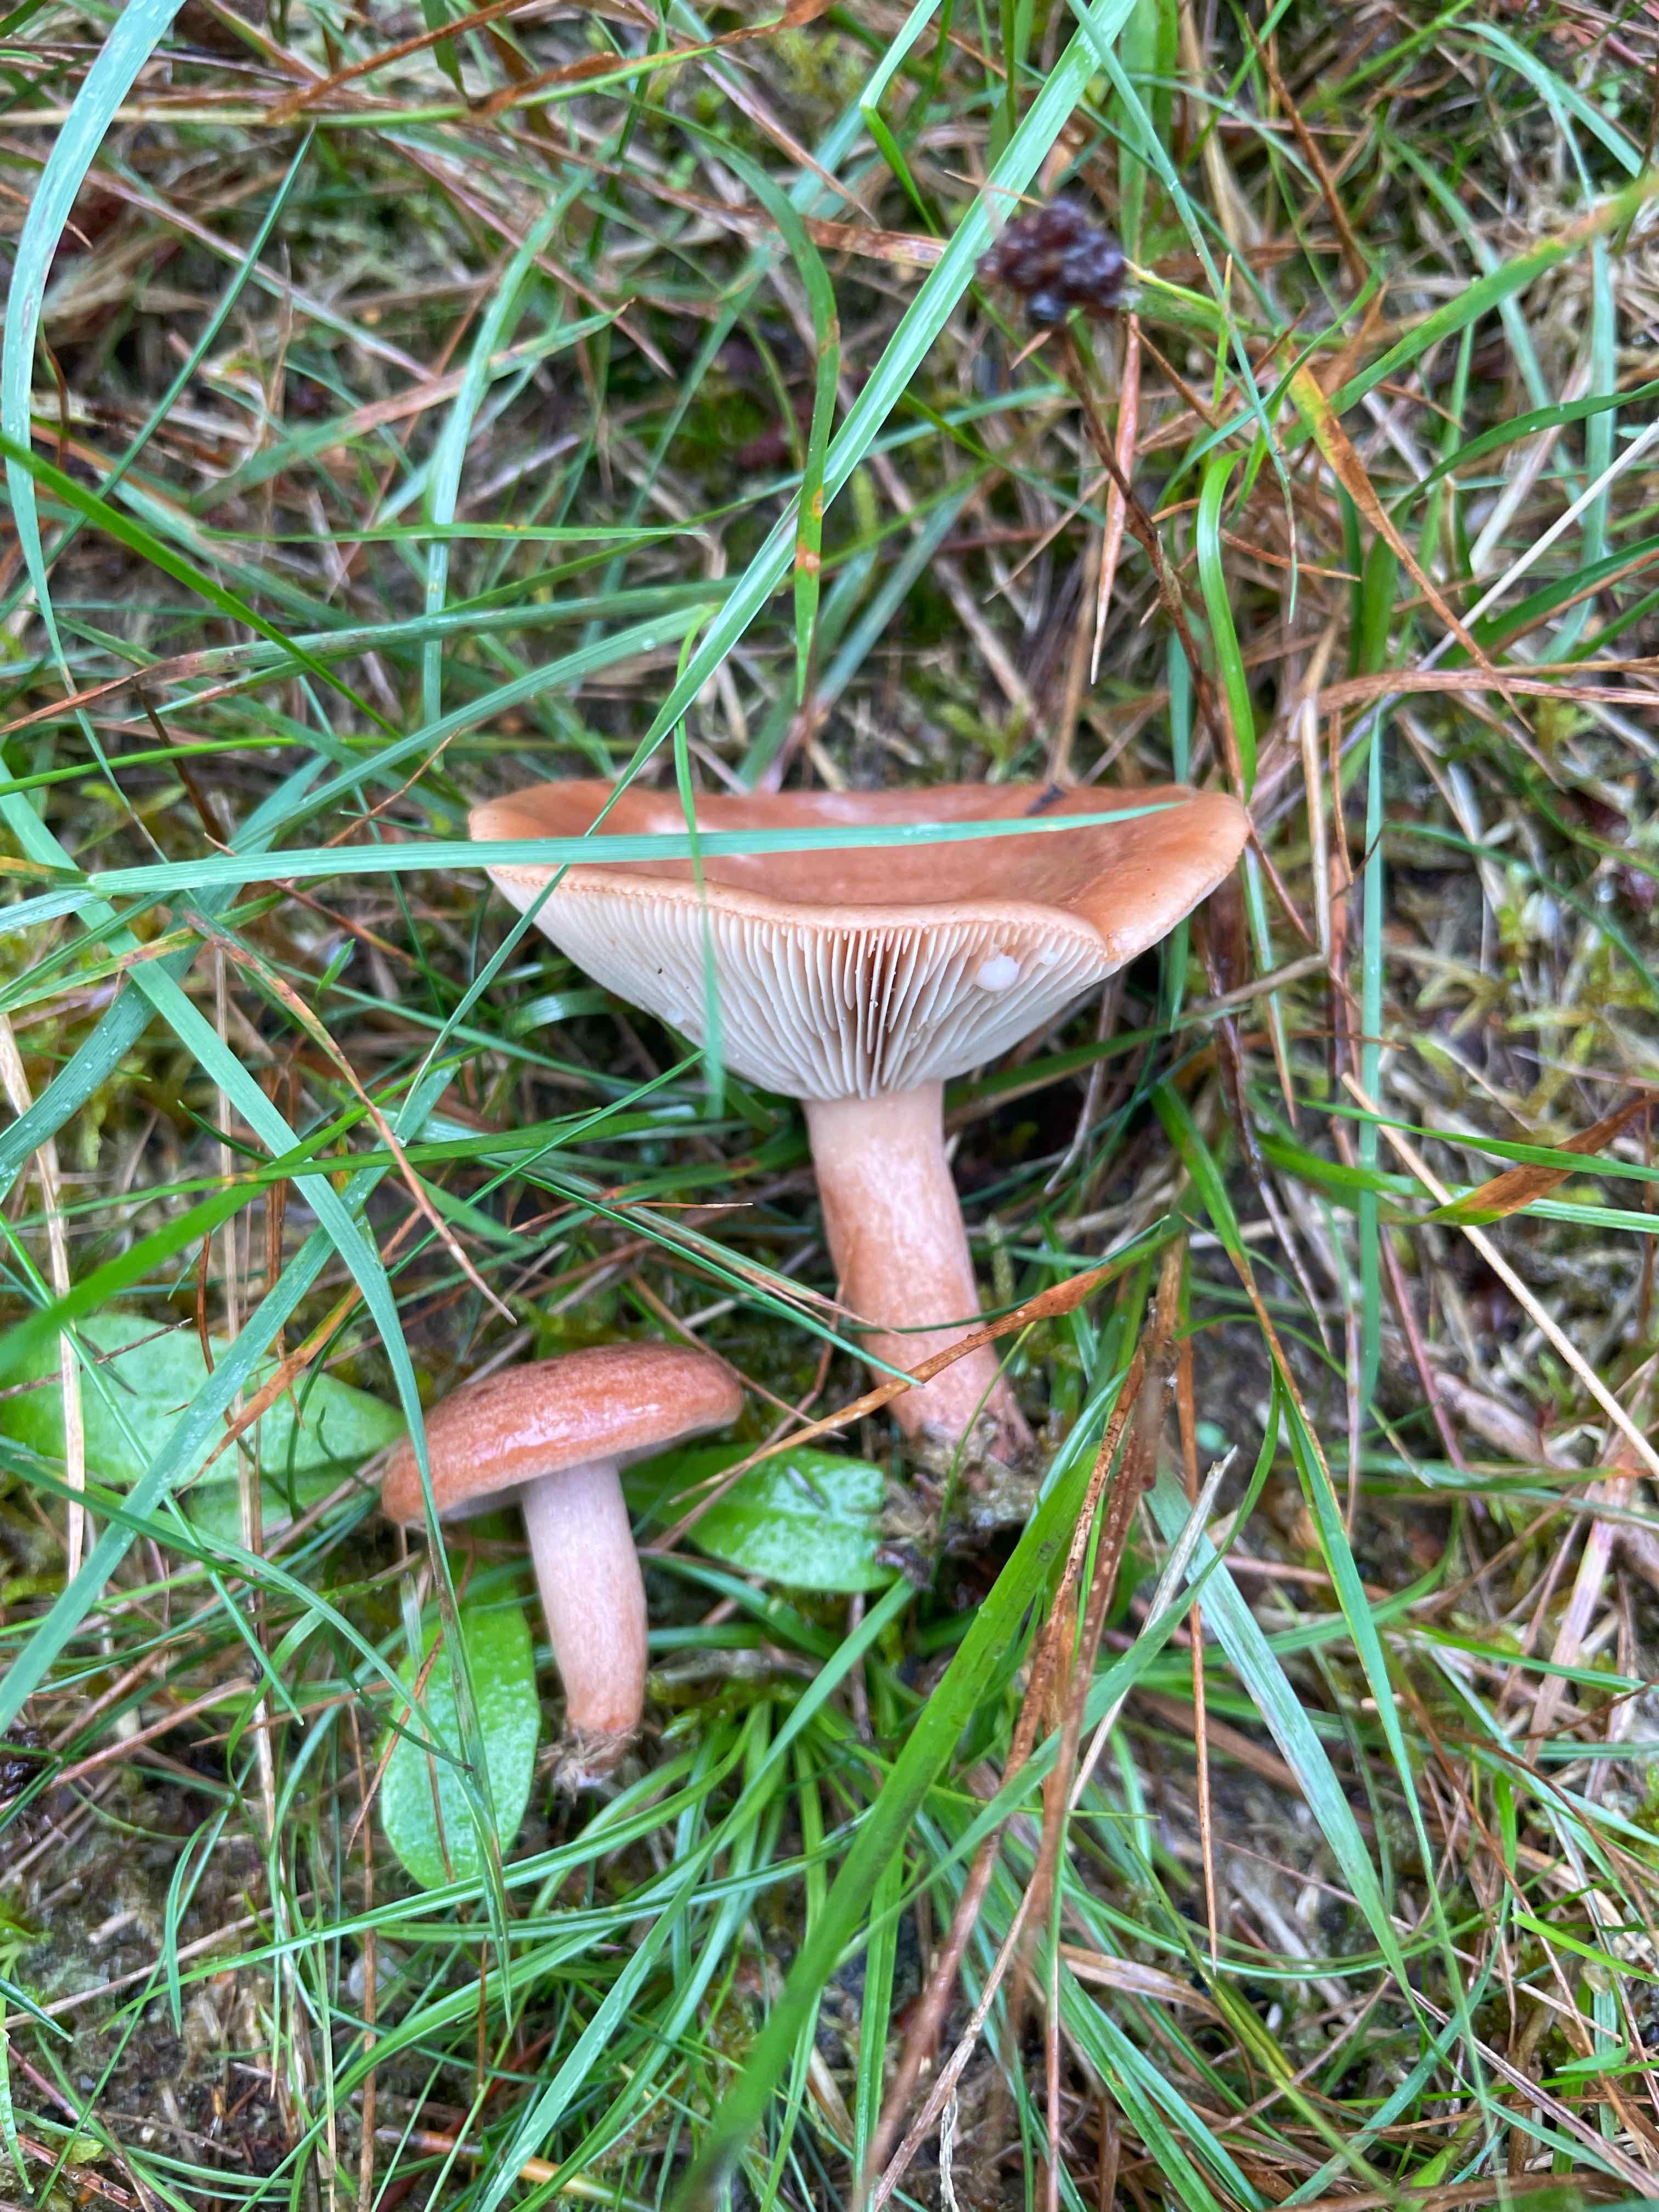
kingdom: Fungi
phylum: Basidiomycota
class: Agaricomycetes
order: Russulales
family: Russulaceae
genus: Lactarius
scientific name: Lactarius quietus
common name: ege-mælkehat
